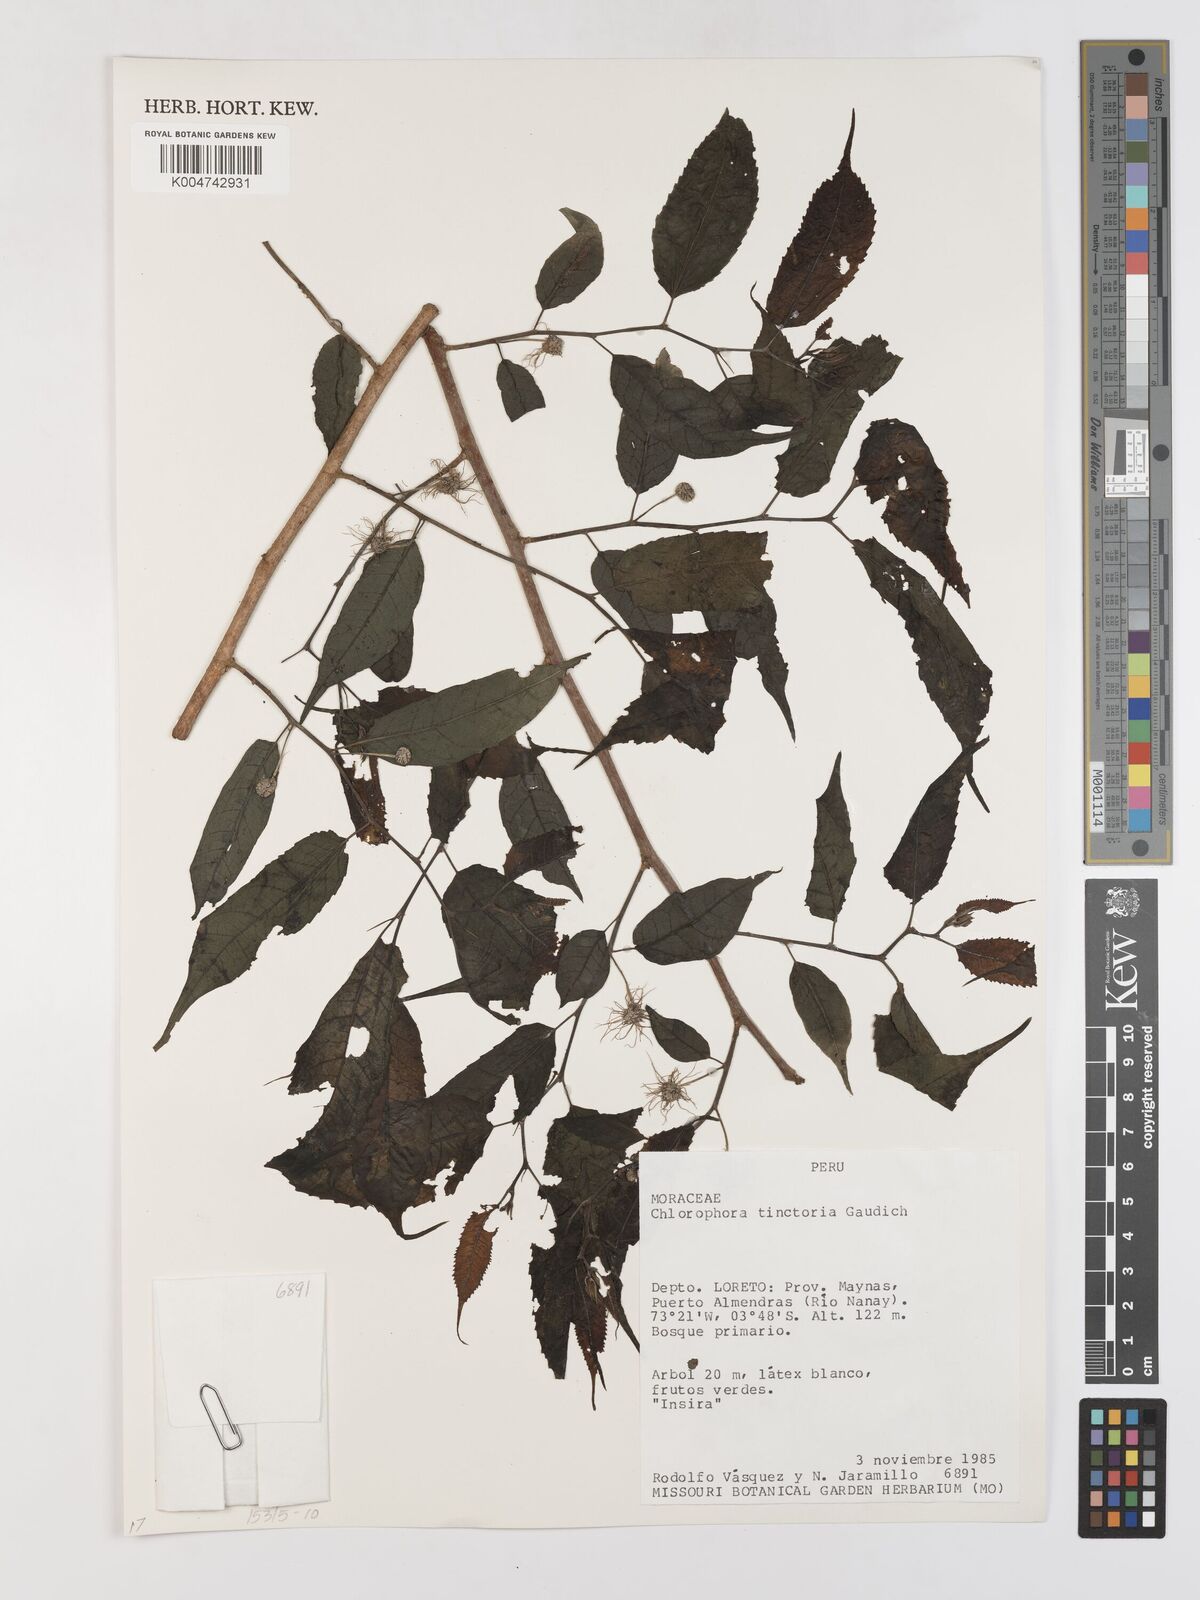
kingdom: Plantae
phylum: Tracheophyta
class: Magnoliopsida
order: Rosales
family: Moraceae
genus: Maclura
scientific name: Maclura tinctoria
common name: Old fustic
